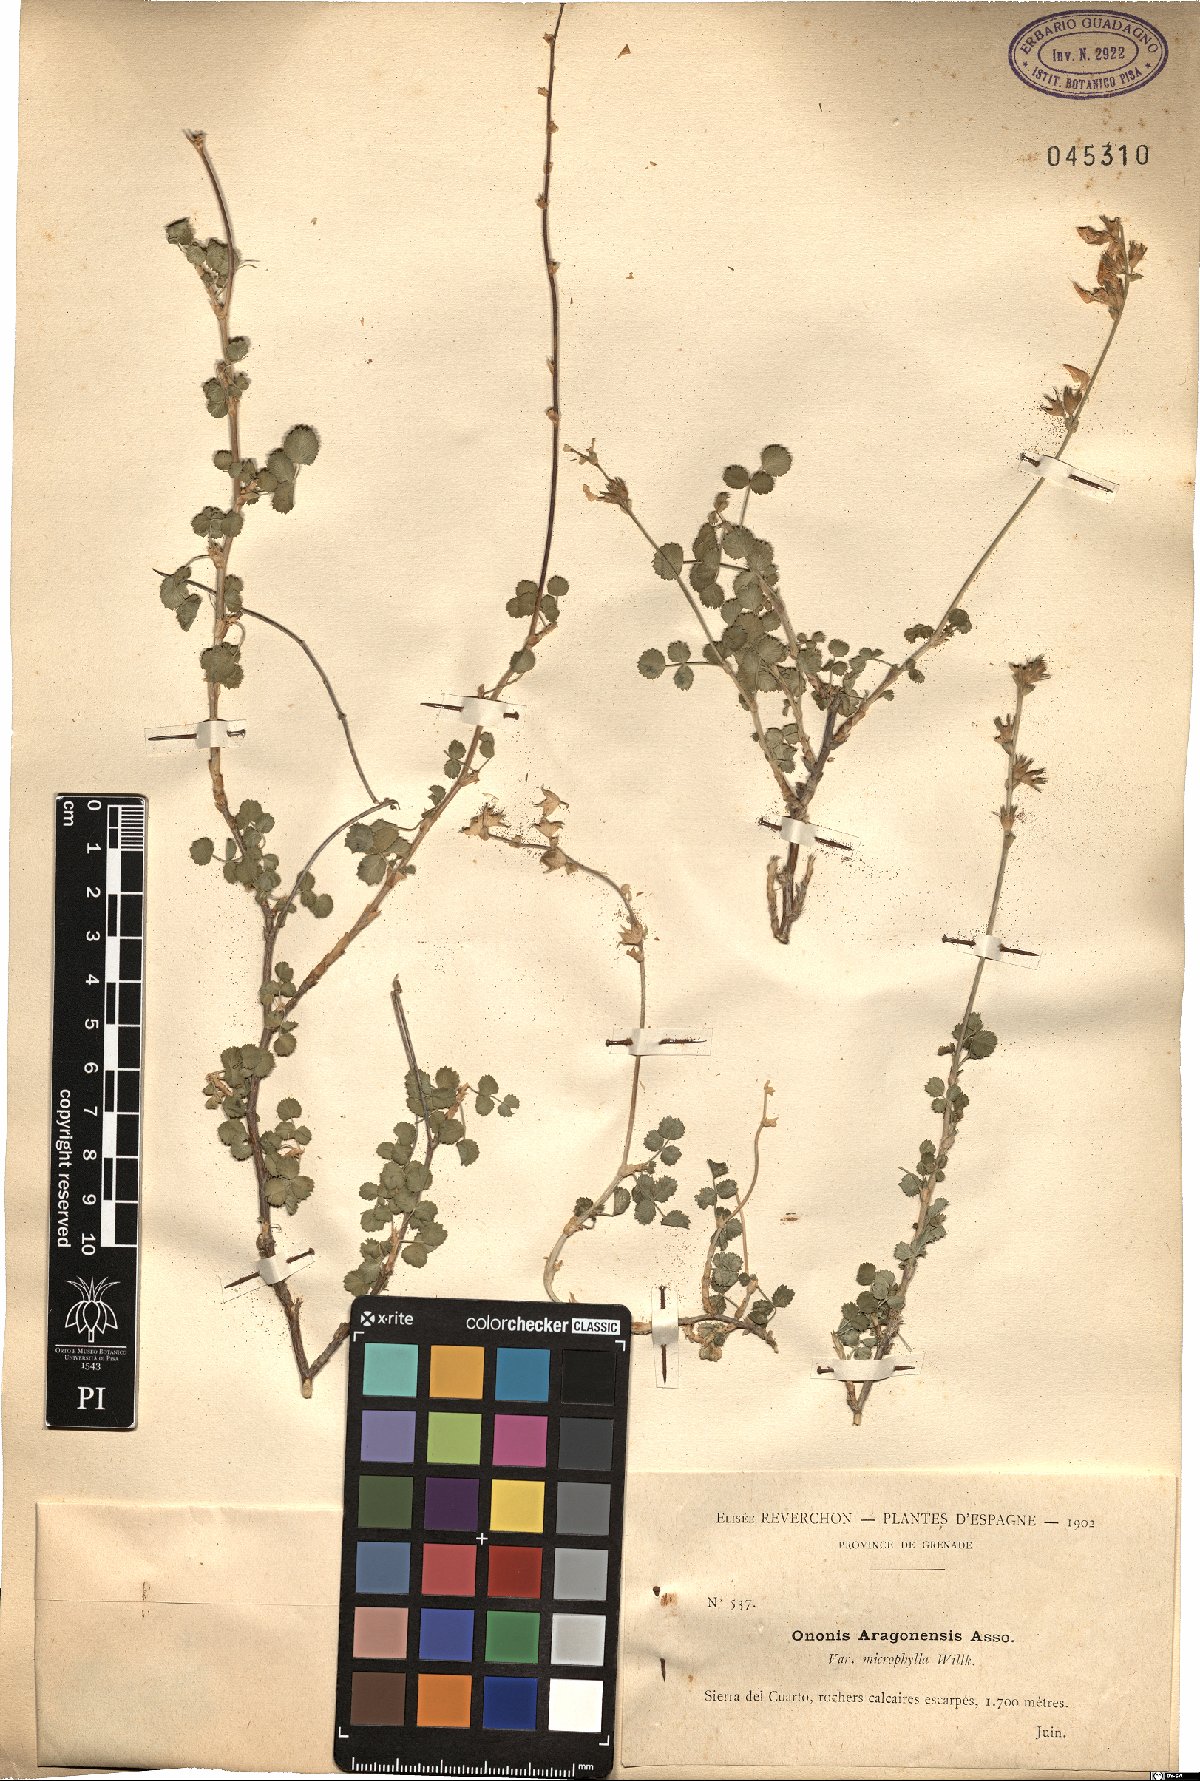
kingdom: Plantae
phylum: Tracheophyta
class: Magnoliopsida
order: Fabales
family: Fabaceae
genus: Ononis
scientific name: Ononis reuteri
